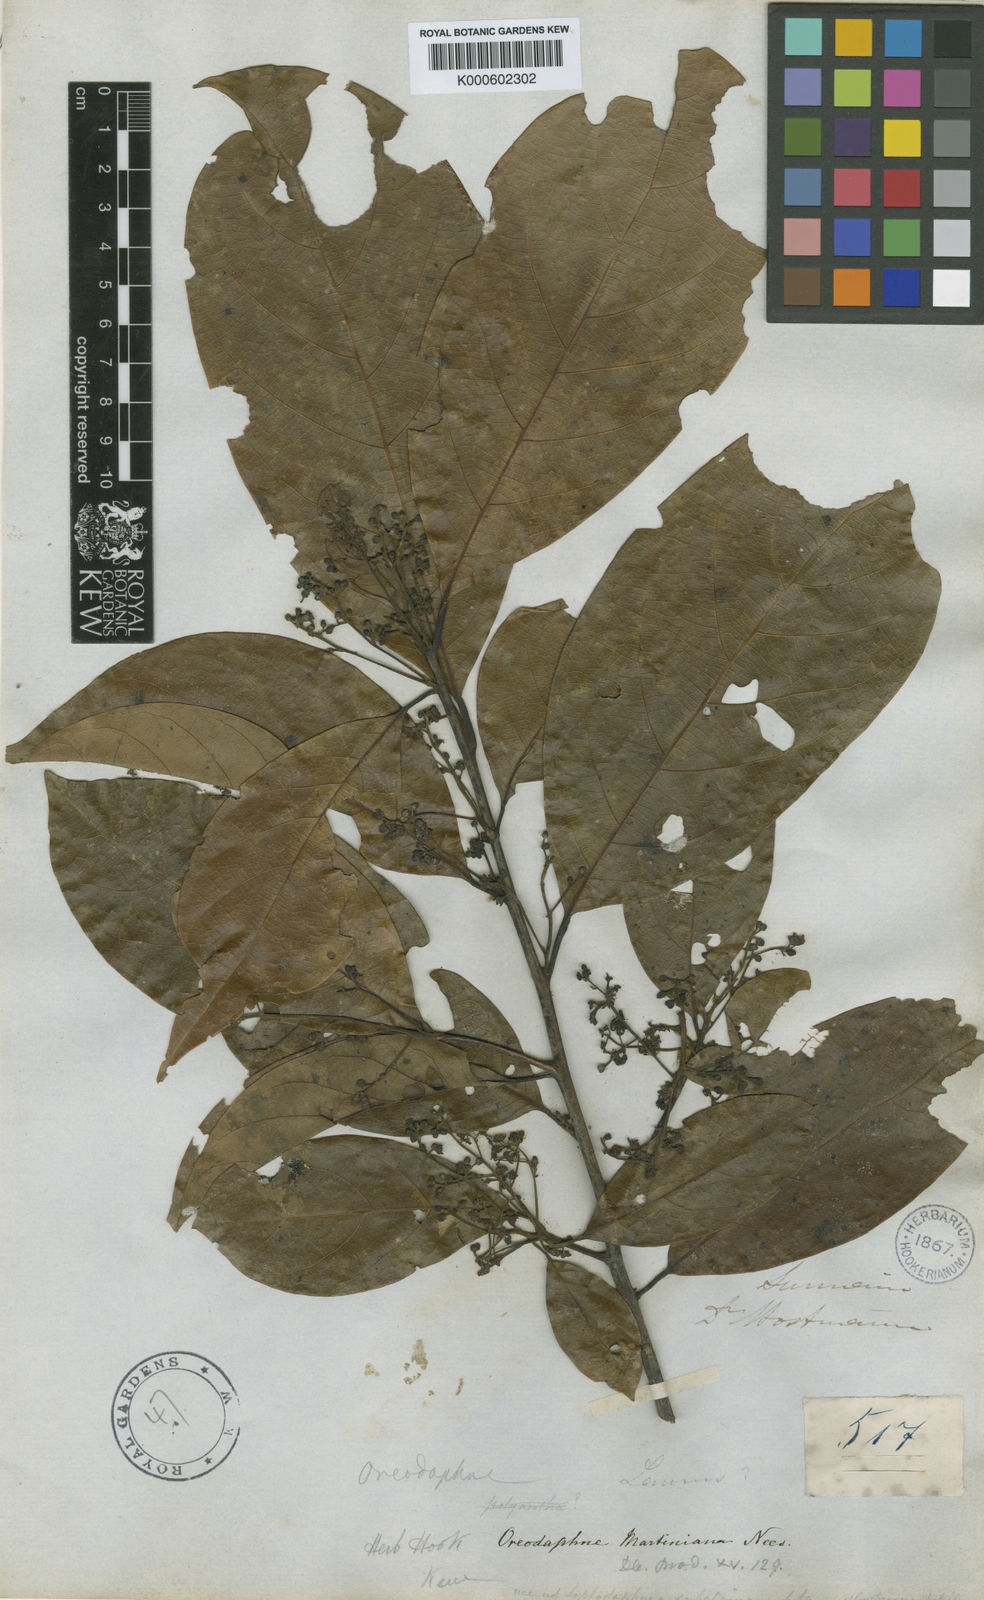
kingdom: Plantae
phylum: Tracheophyta
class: Magnoliopsida
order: Laurales
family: Lauraceae
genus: Ocotea
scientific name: Ocotea puberula
